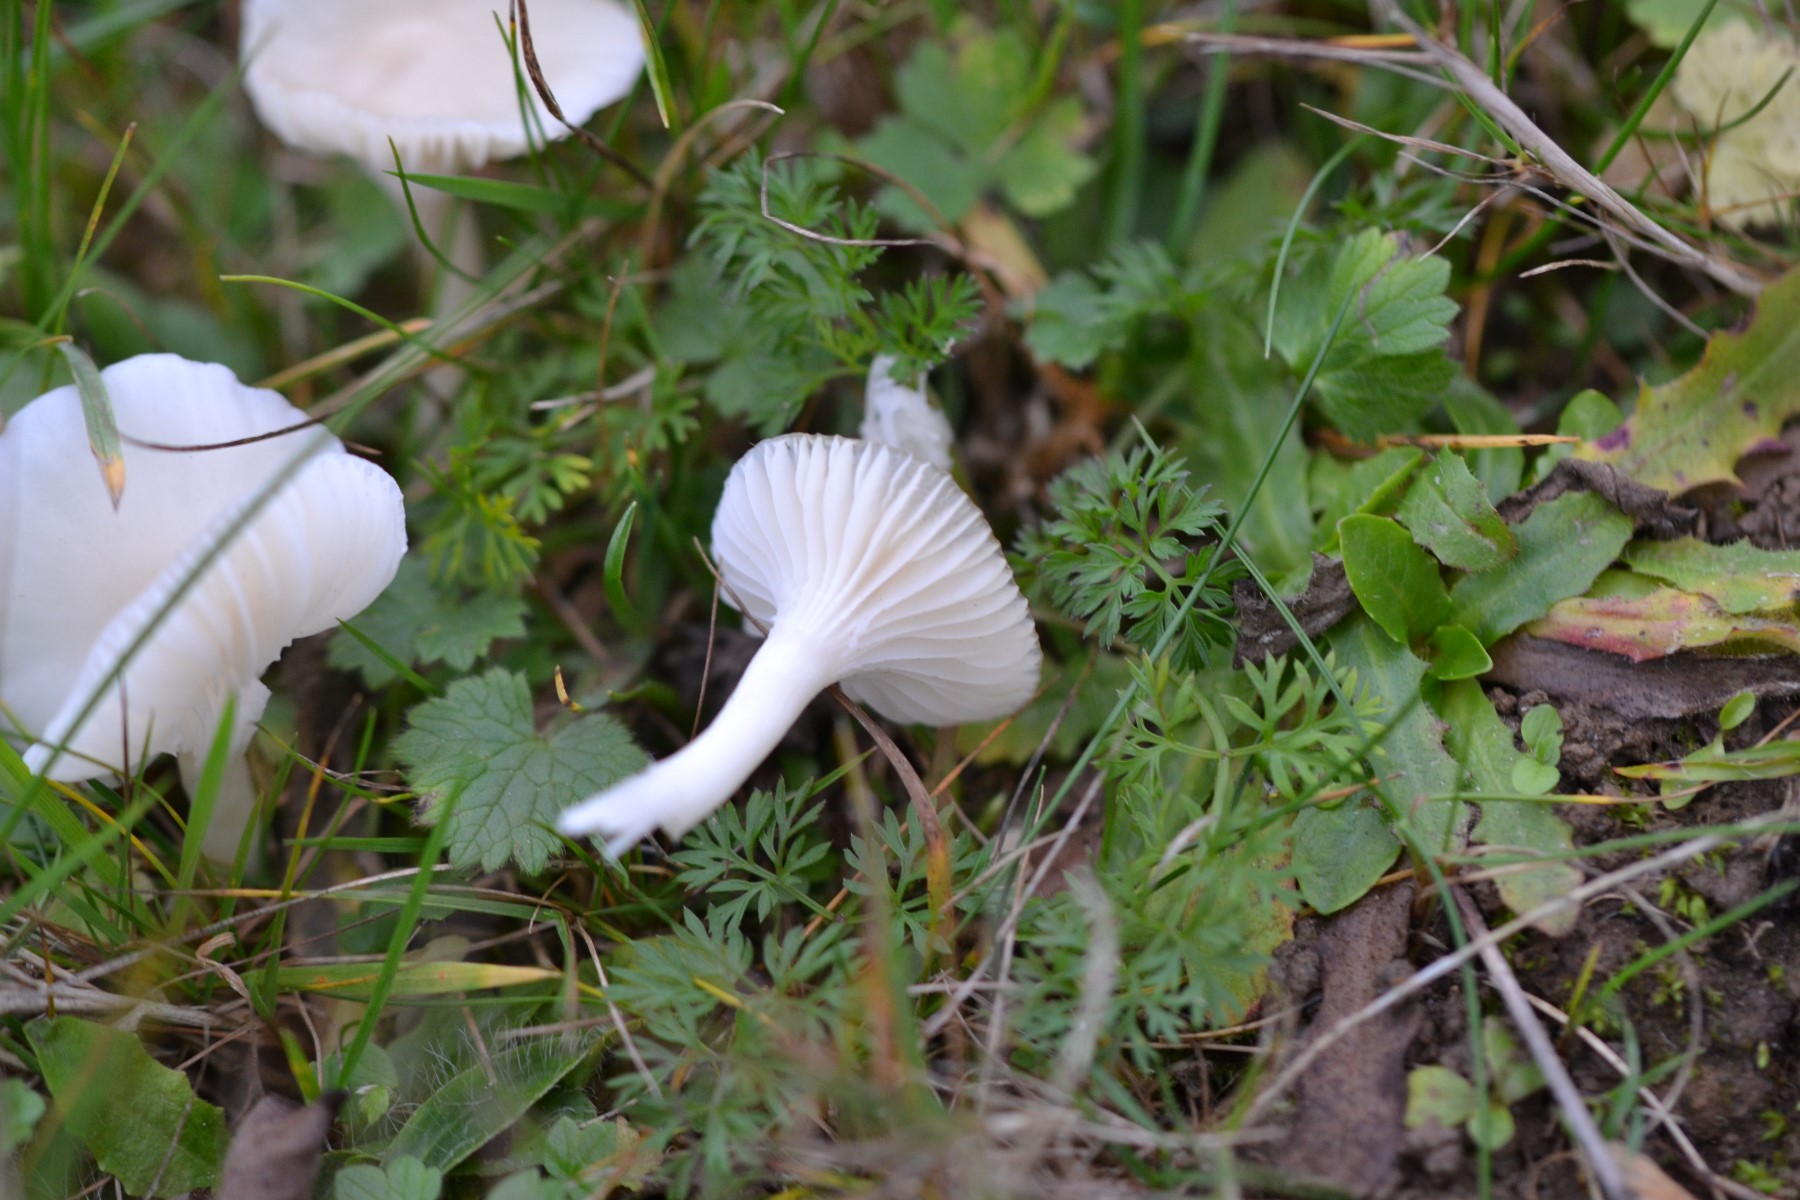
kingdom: Fungi
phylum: Basidiomycota
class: Agaricomycetes
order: Agaricales
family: Hygrophoraceae
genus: Cuphophyllus
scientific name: Cuphophyllus virgineus
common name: snehvid vokshat
